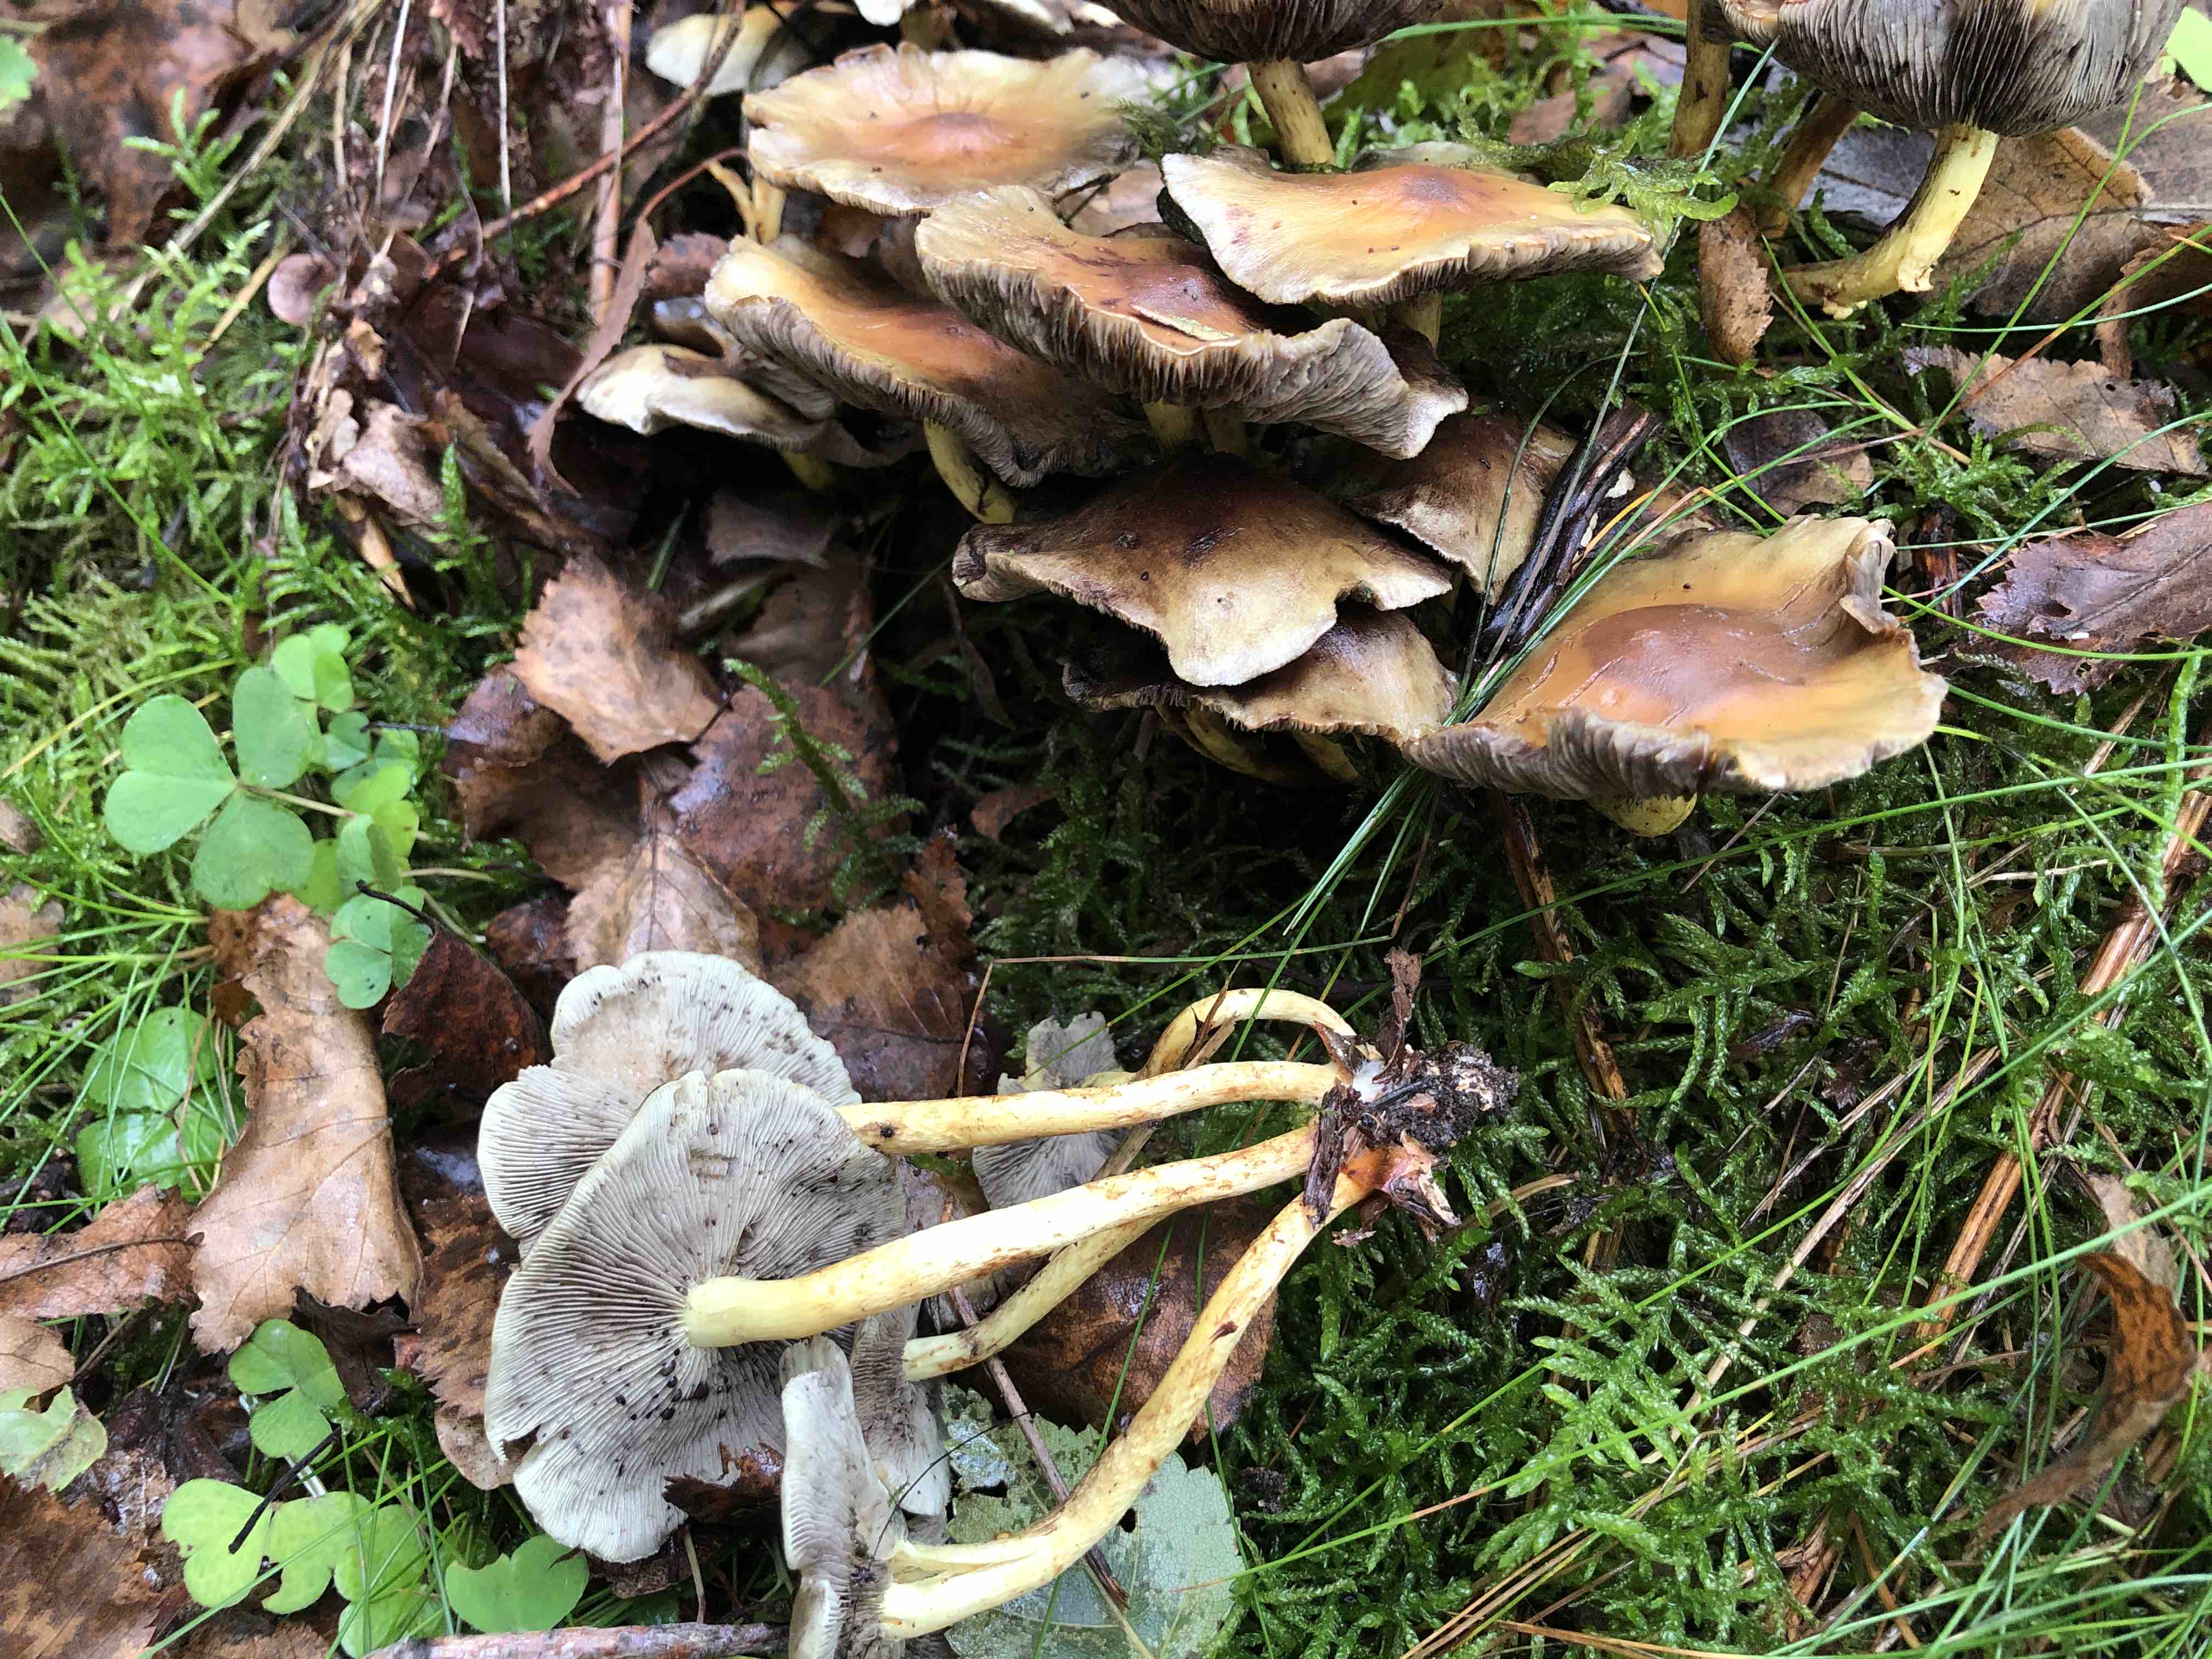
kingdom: Fungi
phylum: Basidiomycota
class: Agaricomycetes
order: Agaricales
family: Strophariaceae
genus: Hypholoma
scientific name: Hypholoma fasciculare
